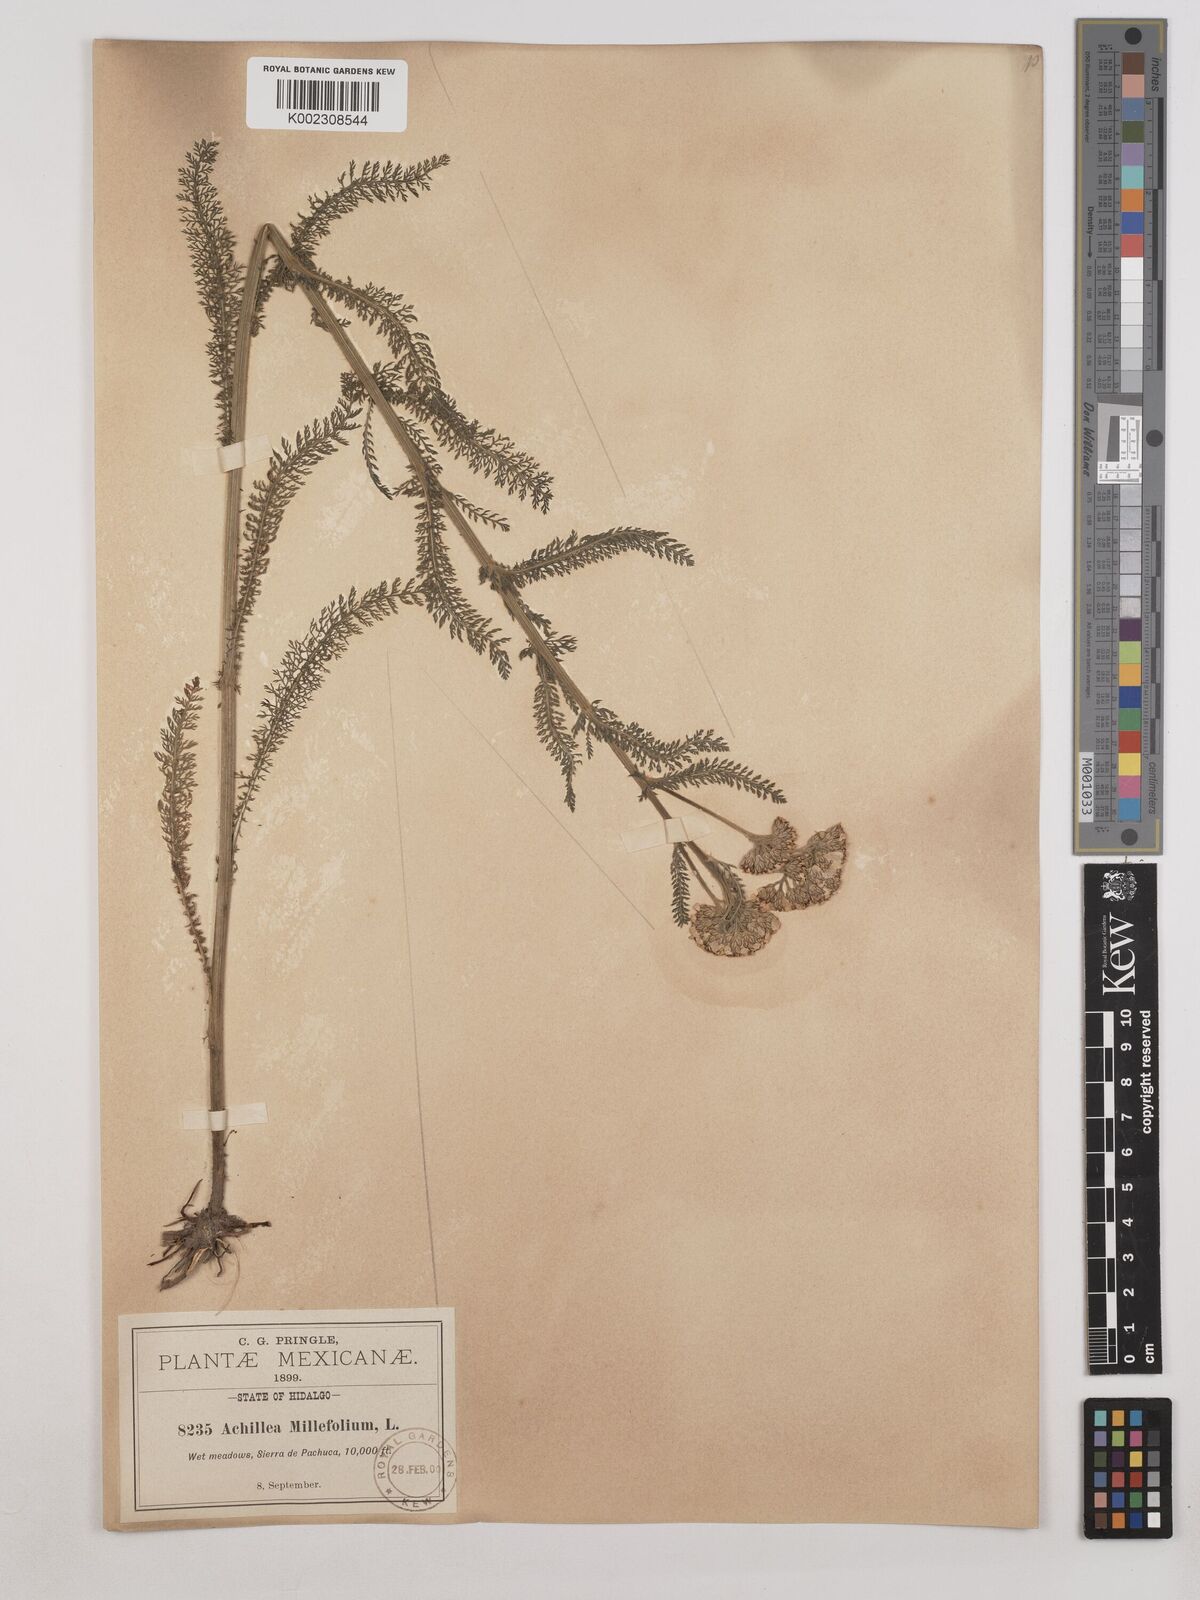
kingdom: Plantae
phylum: Tracheophyta
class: Magnoliopsida
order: Asterales
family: Asteraceae
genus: Achillea
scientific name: Achillea millefolium
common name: Yarrow
